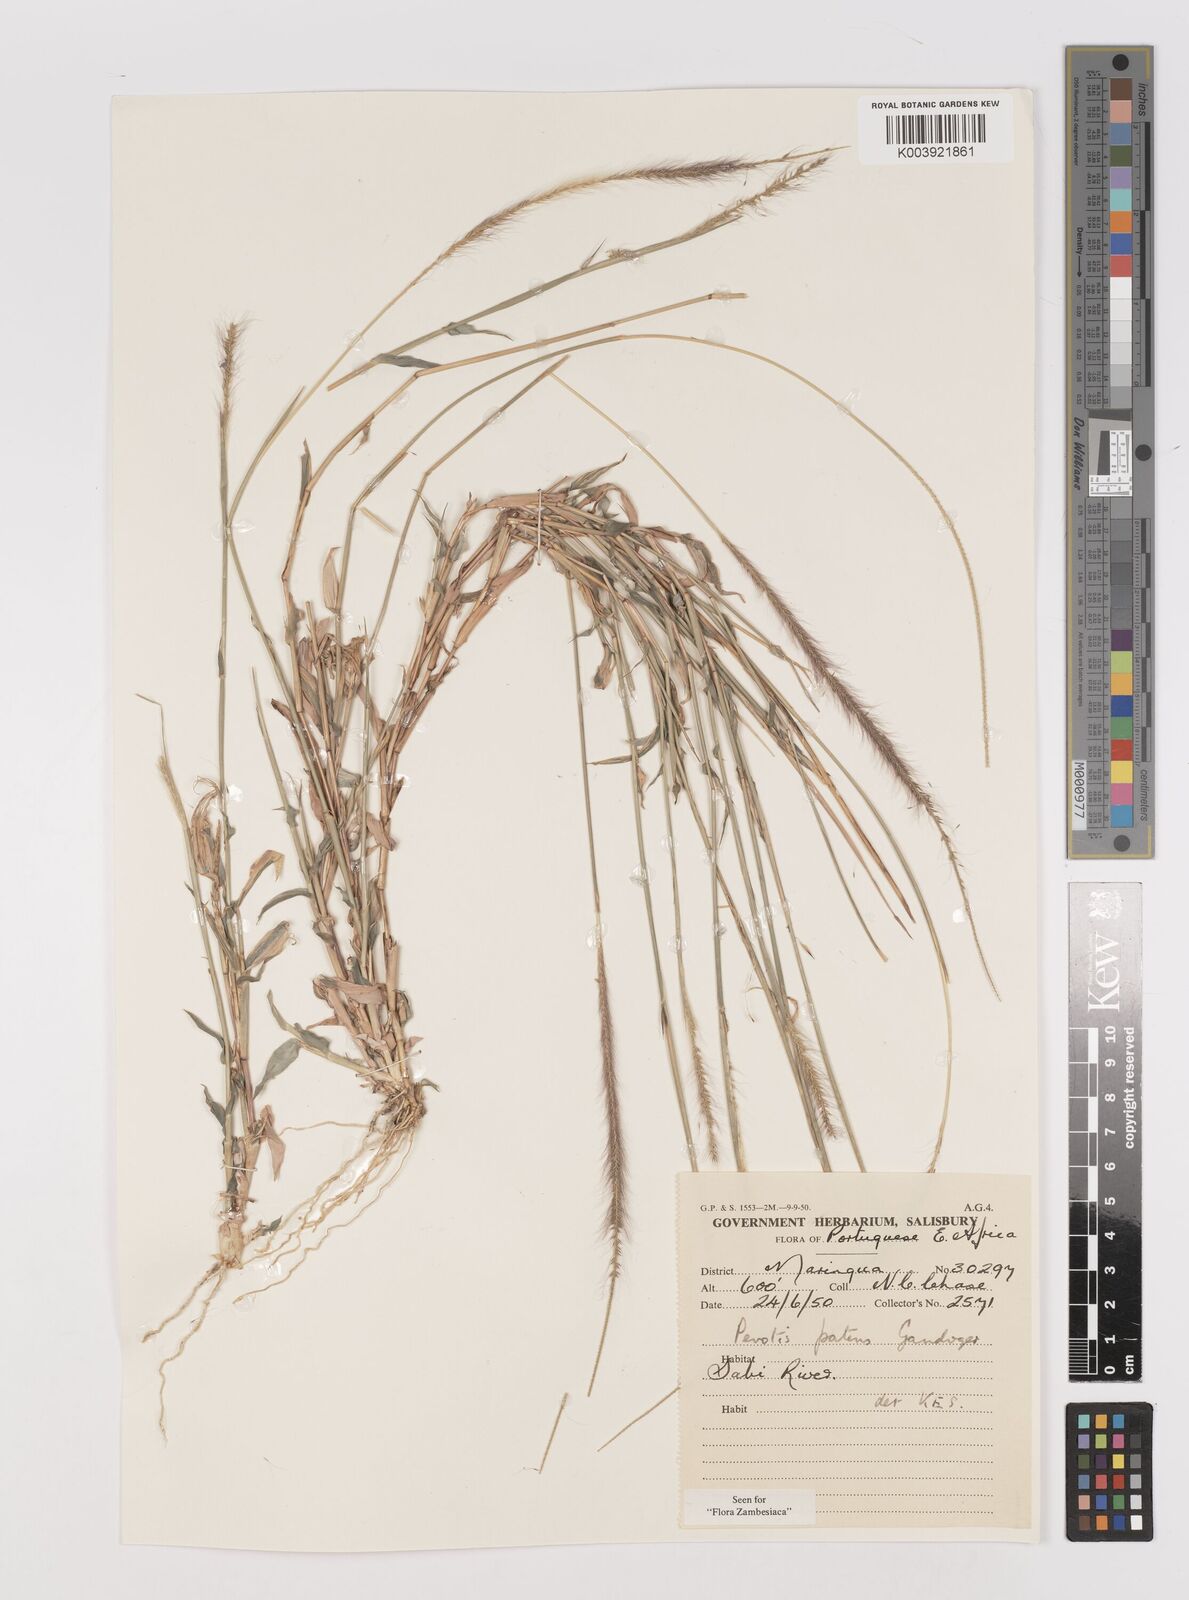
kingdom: Plantae
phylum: Tracheophyta
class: Liliopsida
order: Poales
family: Poaceae
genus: Perotis
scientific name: Perotis patens
